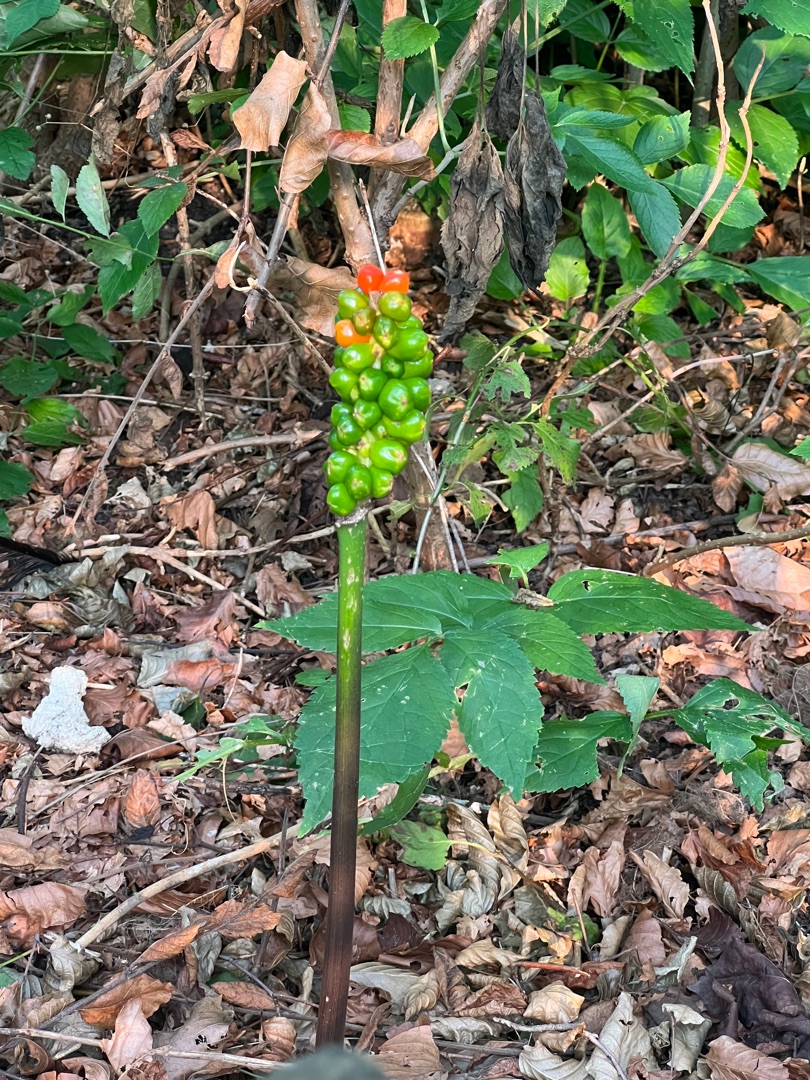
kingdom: Plantae
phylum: Tracheophyta
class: Liliopsida
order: Alismatales
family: Araceae
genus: Arum
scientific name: Arum
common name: Arumslægten
